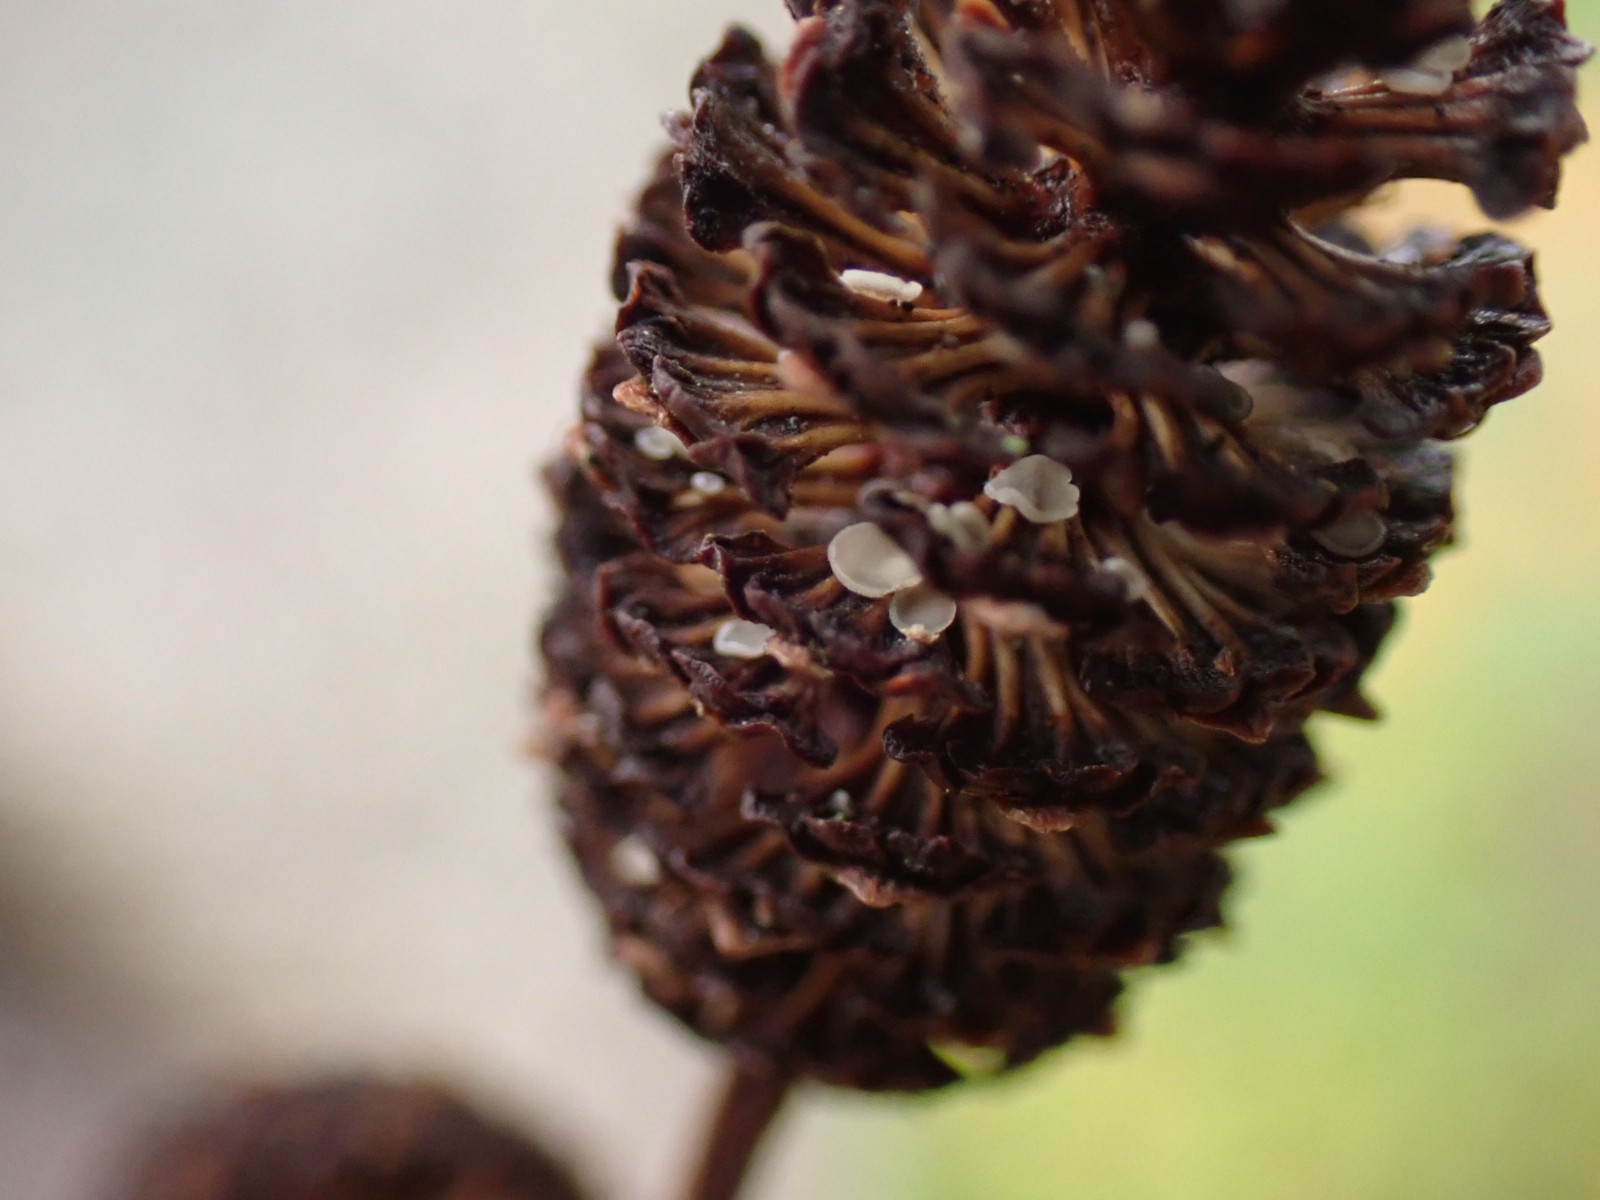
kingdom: Fungi
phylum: Ascomycota
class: Leotiomycetes
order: Helotiales
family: Mollisiaceae
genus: Mollisia
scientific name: Mollisia amenticola
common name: ellekogle-gråskive
